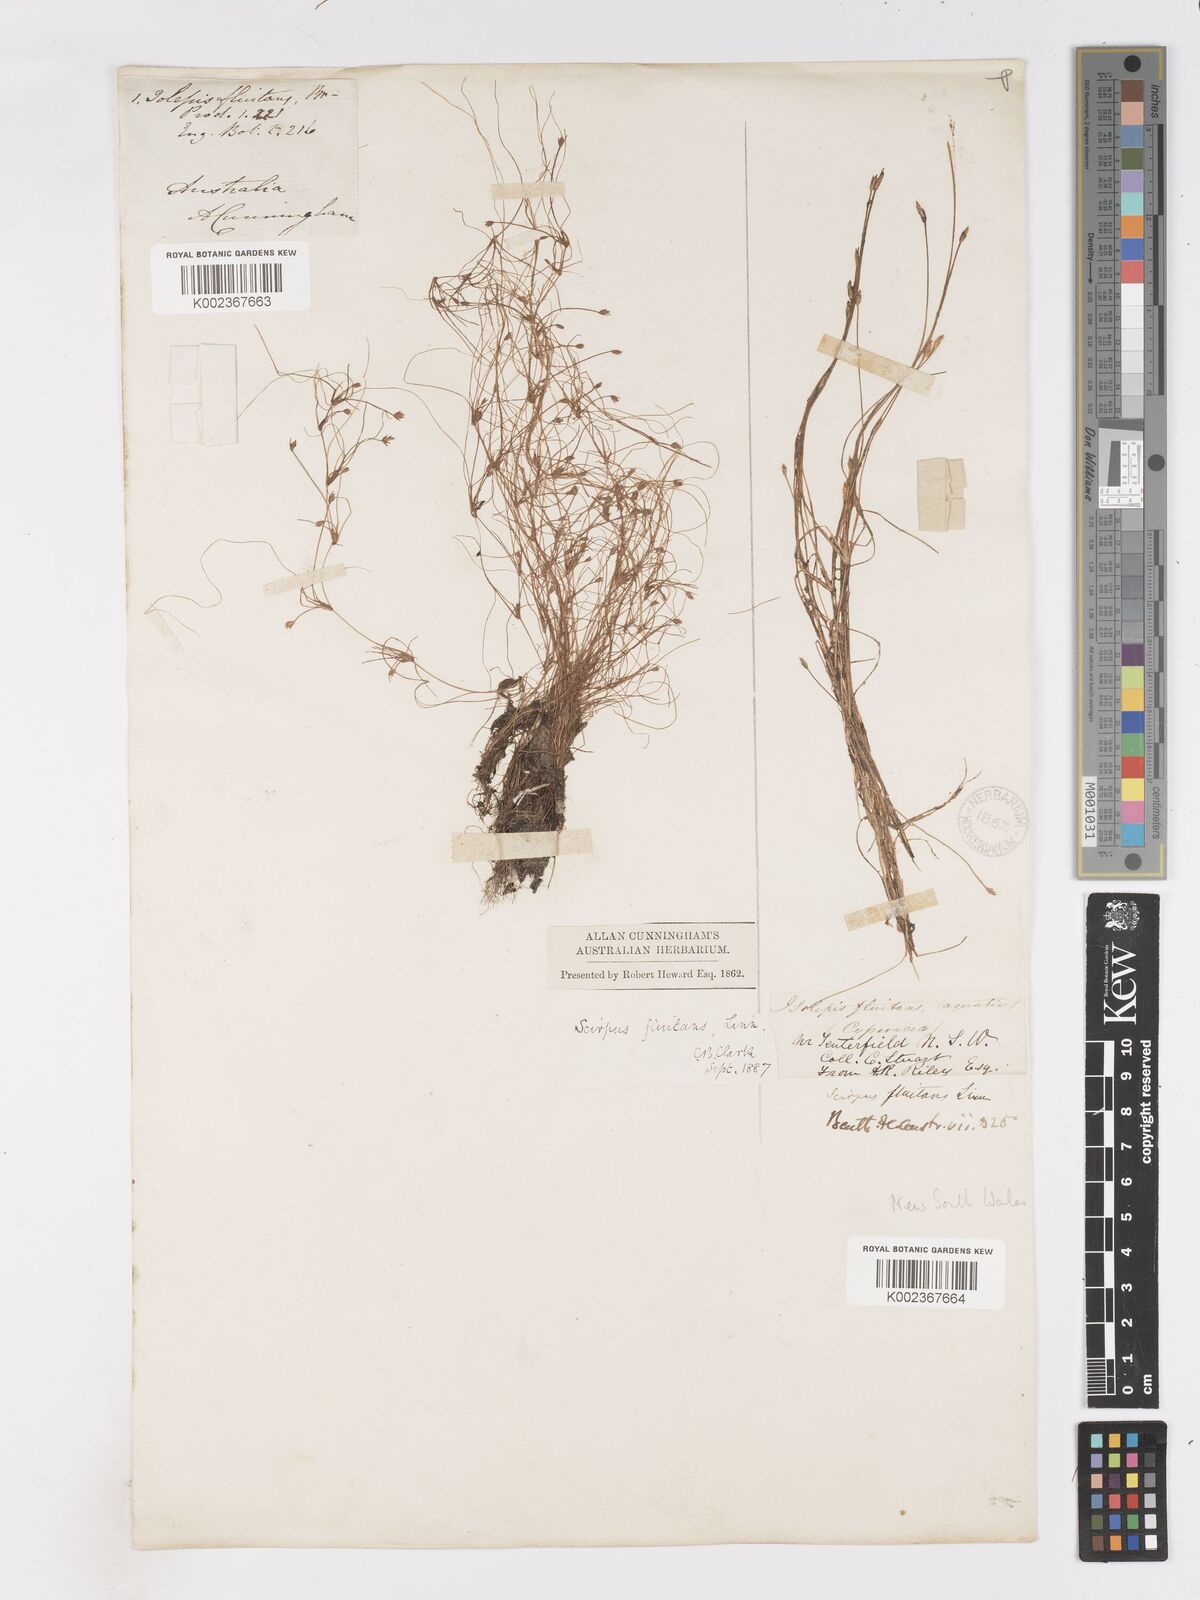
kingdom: Plantae
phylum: Tracheophyta
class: Liliopsida
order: Poales
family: Cyperaceae
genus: Isolepis
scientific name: Isolepis fluitans
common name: Floating club-rush
